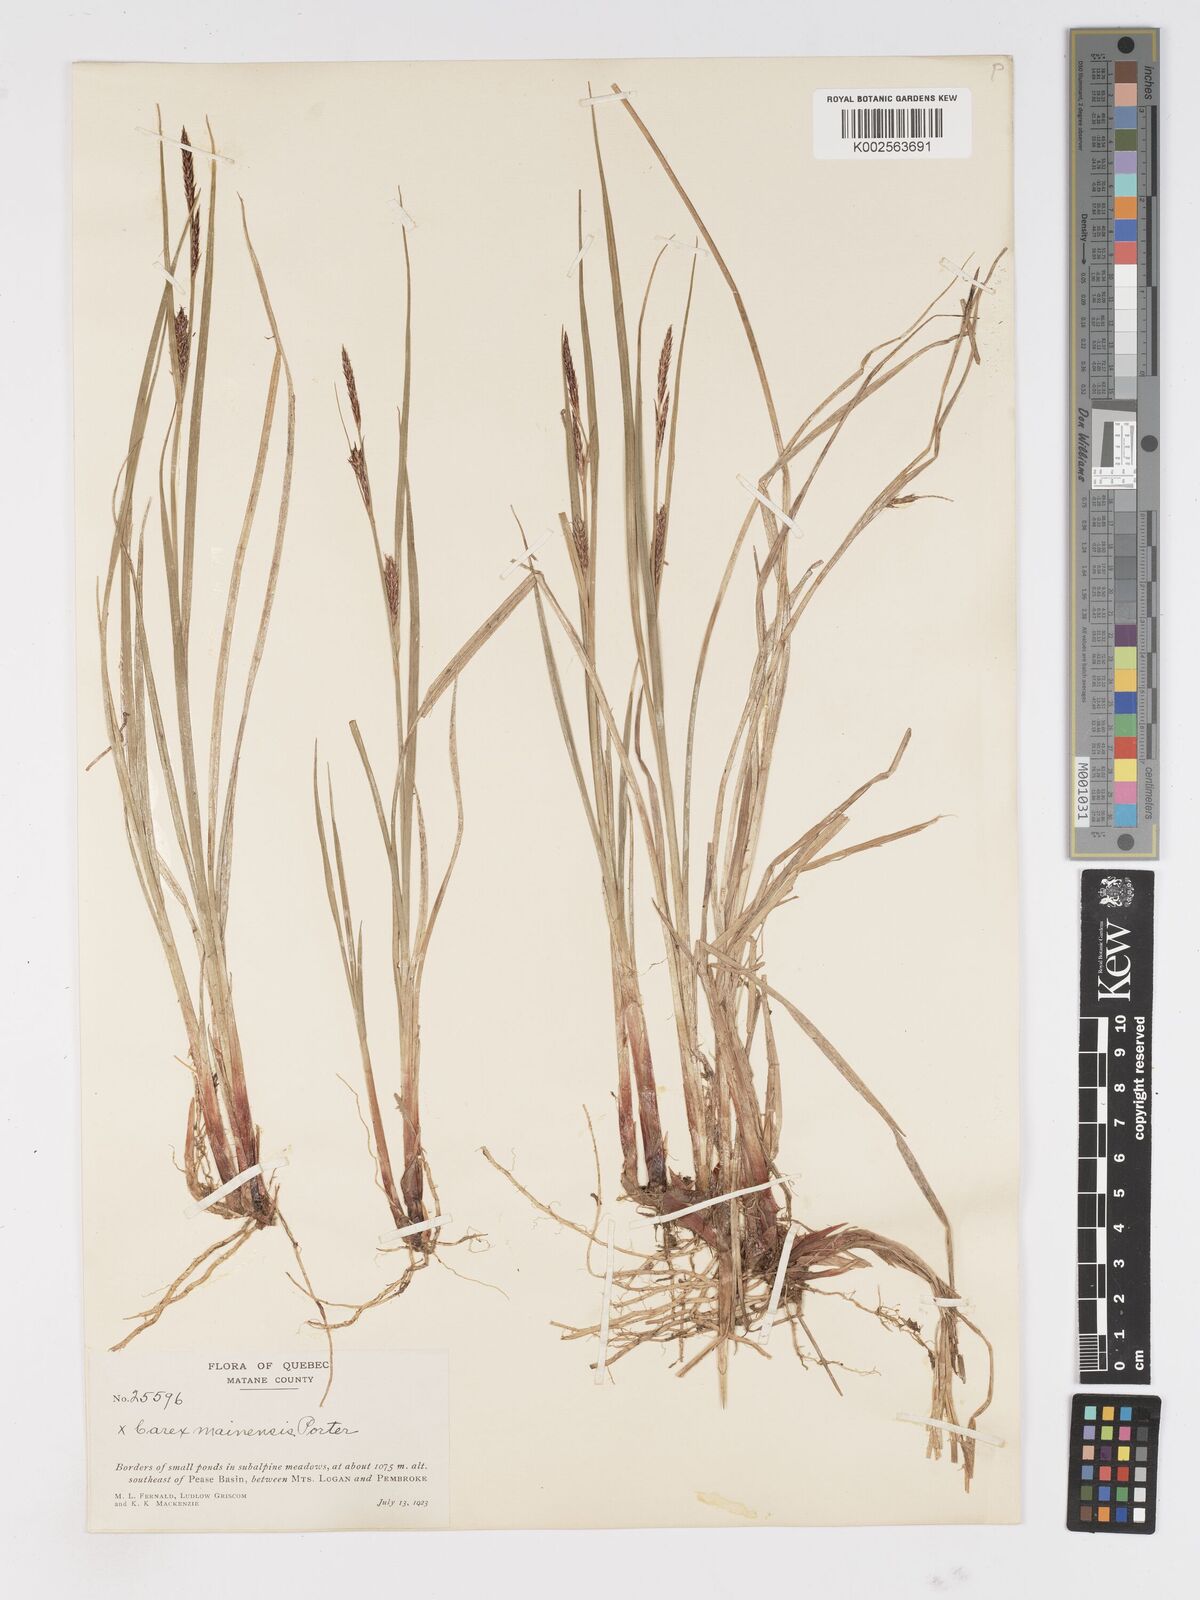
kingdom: Plantae
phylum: Tracheophyta
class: Liliopsida
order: Poales
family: Cyperaceae
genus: Carex
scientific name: Carex mainensis
